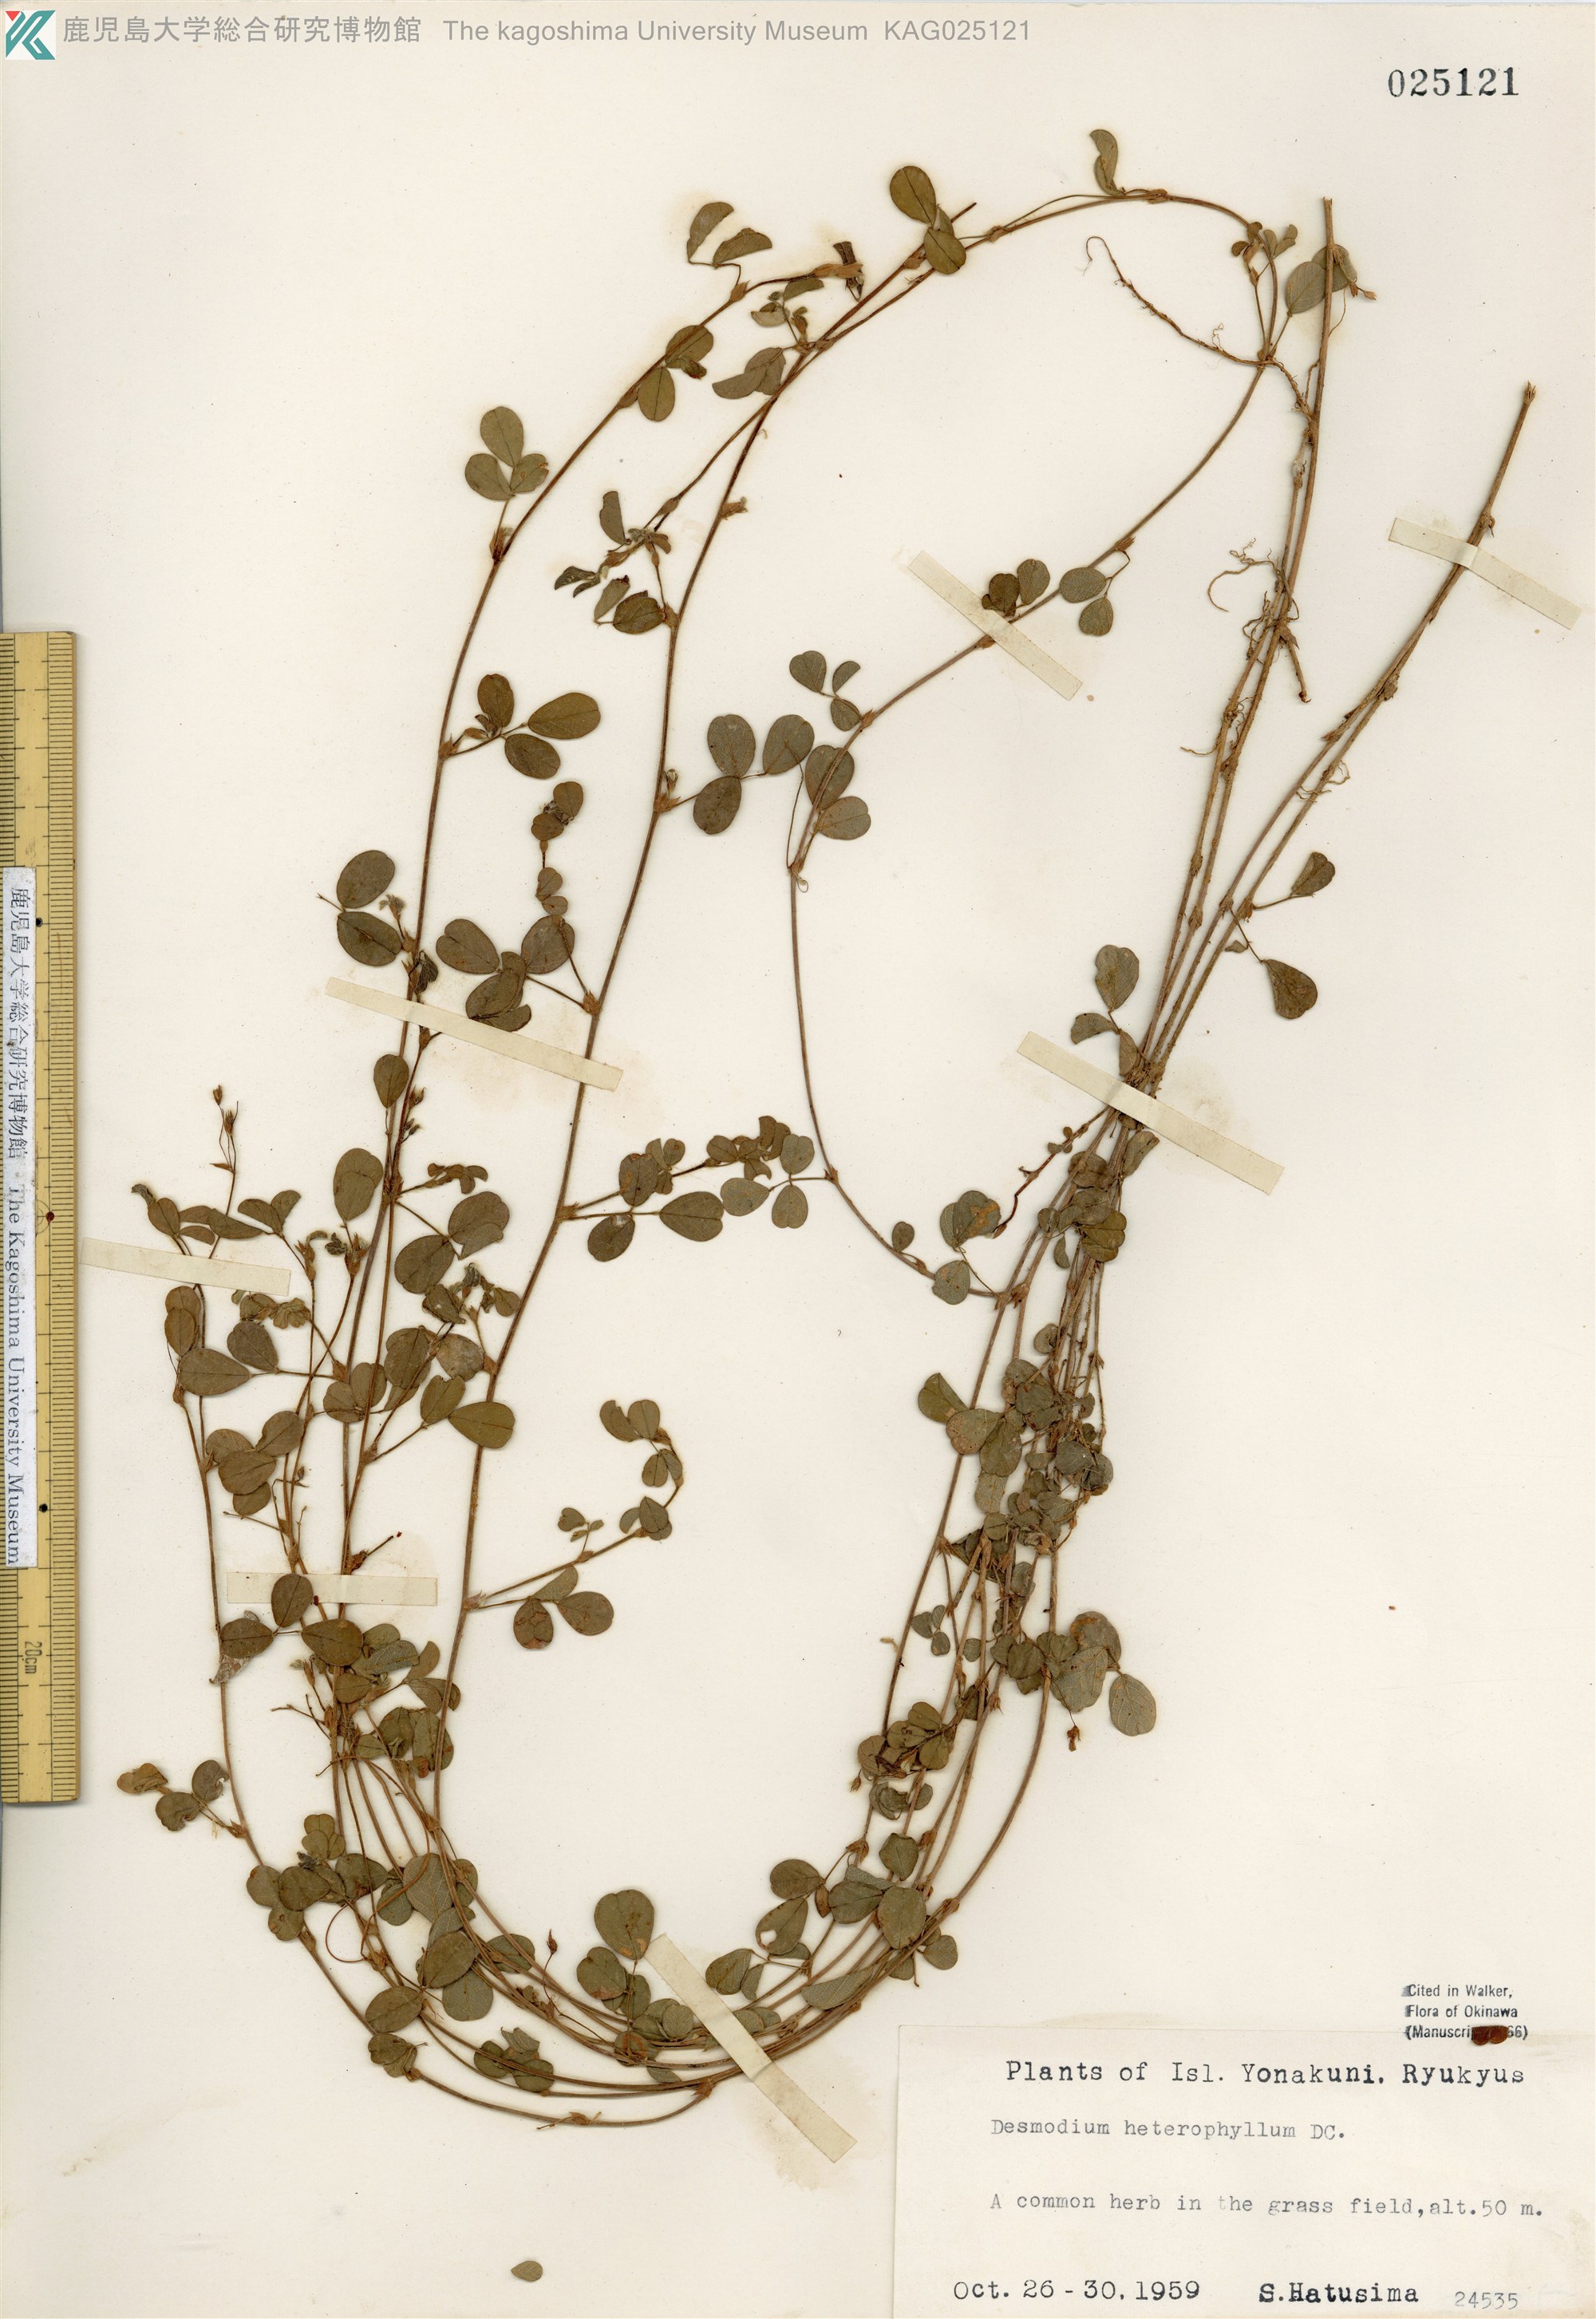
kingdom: Plantae
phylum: Tracheophyta
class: Magnoliopsida
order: Fabales
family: Fabaceae
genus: Desmodium
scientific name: Desmodium heterophyllum
